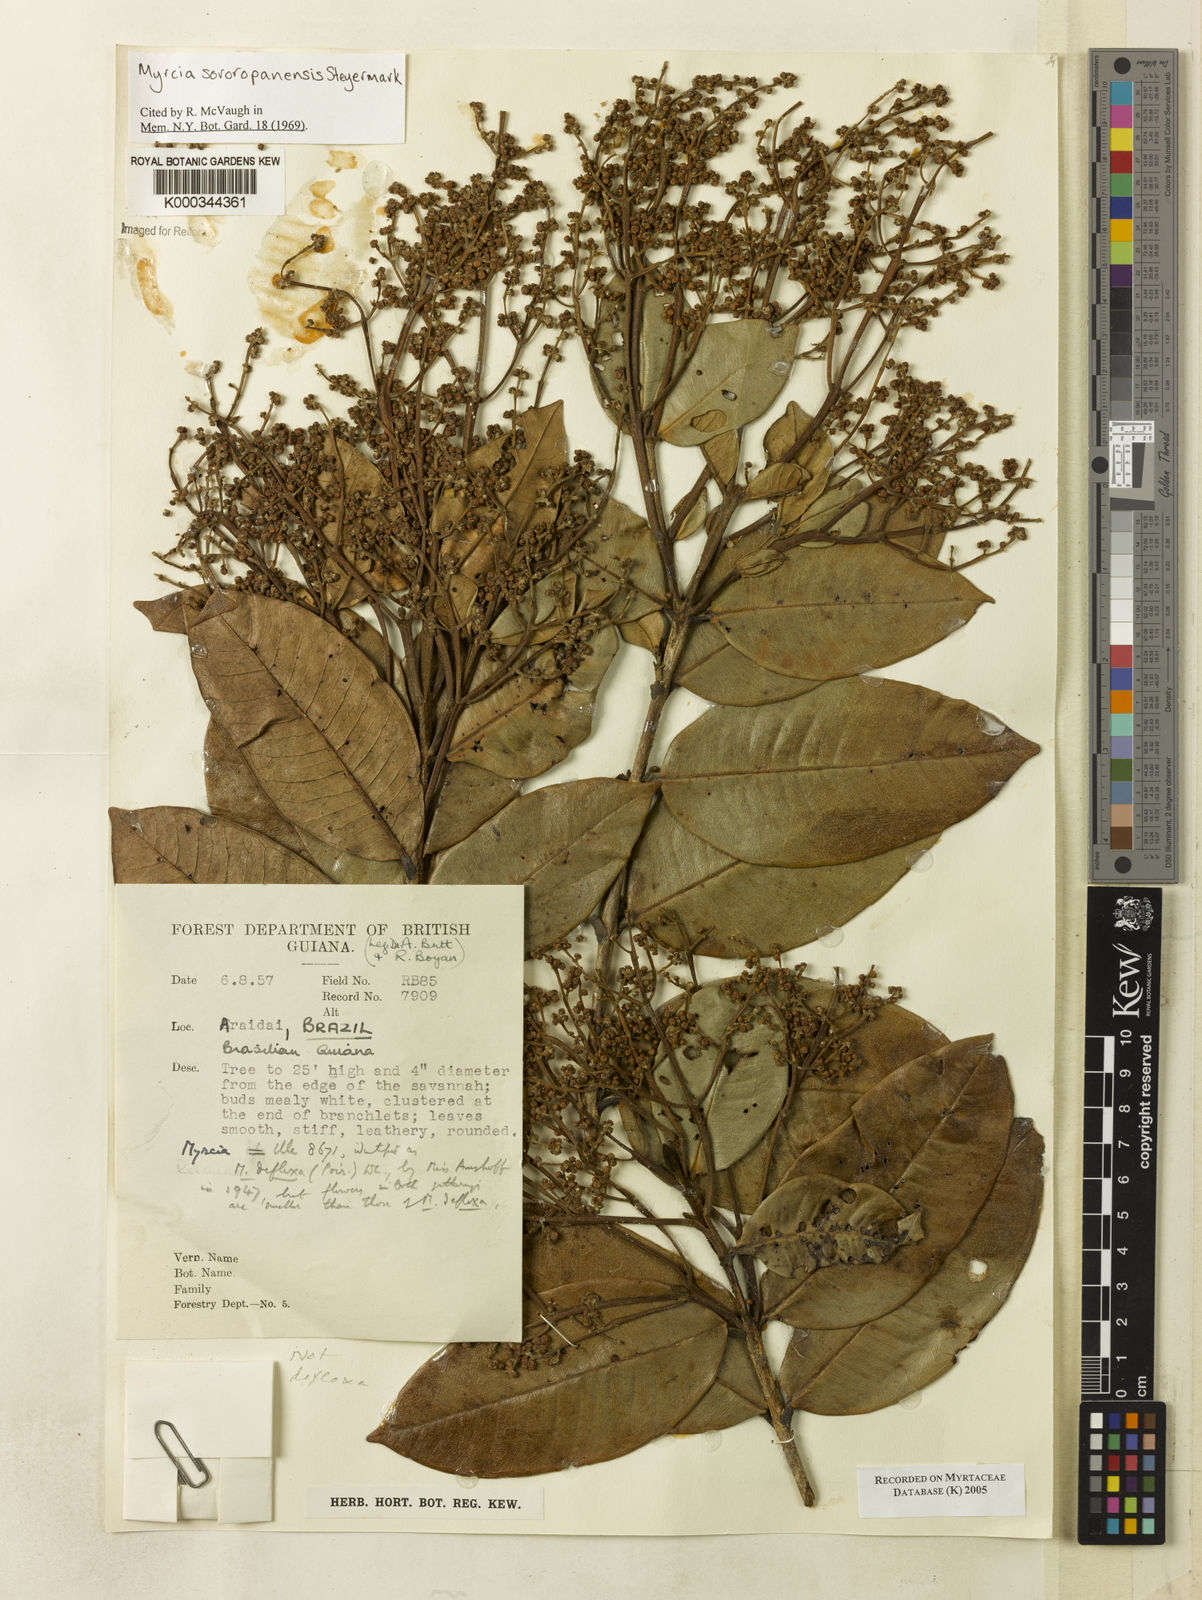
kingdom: Plantae
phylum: Tracheophyta
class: Magnoliopsida
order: Myrtales
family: Myrtaceae
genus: Myrcia
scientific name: Myrcia sororopanensis
